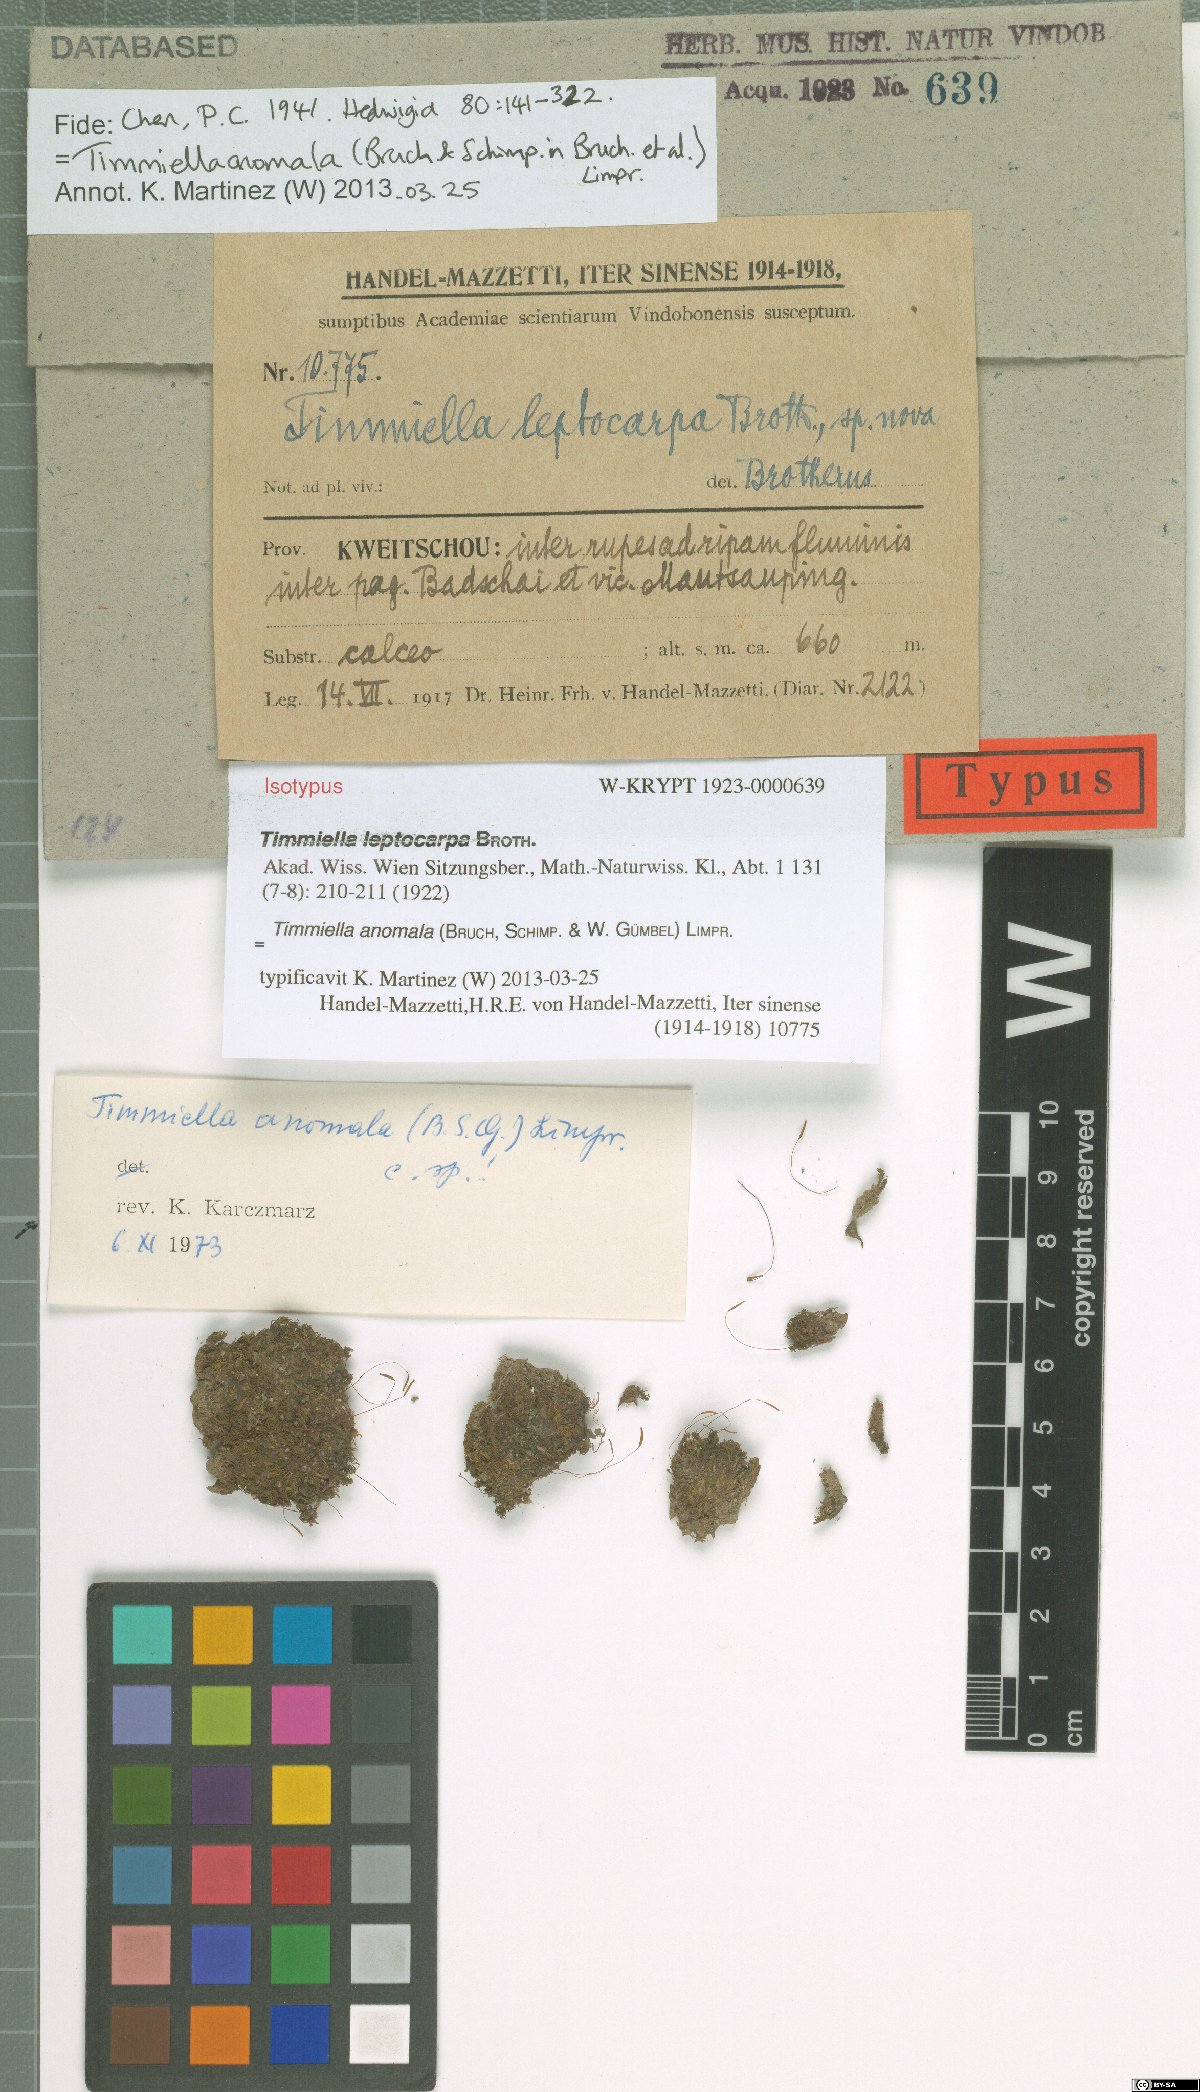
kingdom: Plantae
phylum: Bryophyta
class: Bryopsida
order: Scouleriales
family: Timmiellaceae
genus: Timmiella
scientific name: Timmiella anomala
